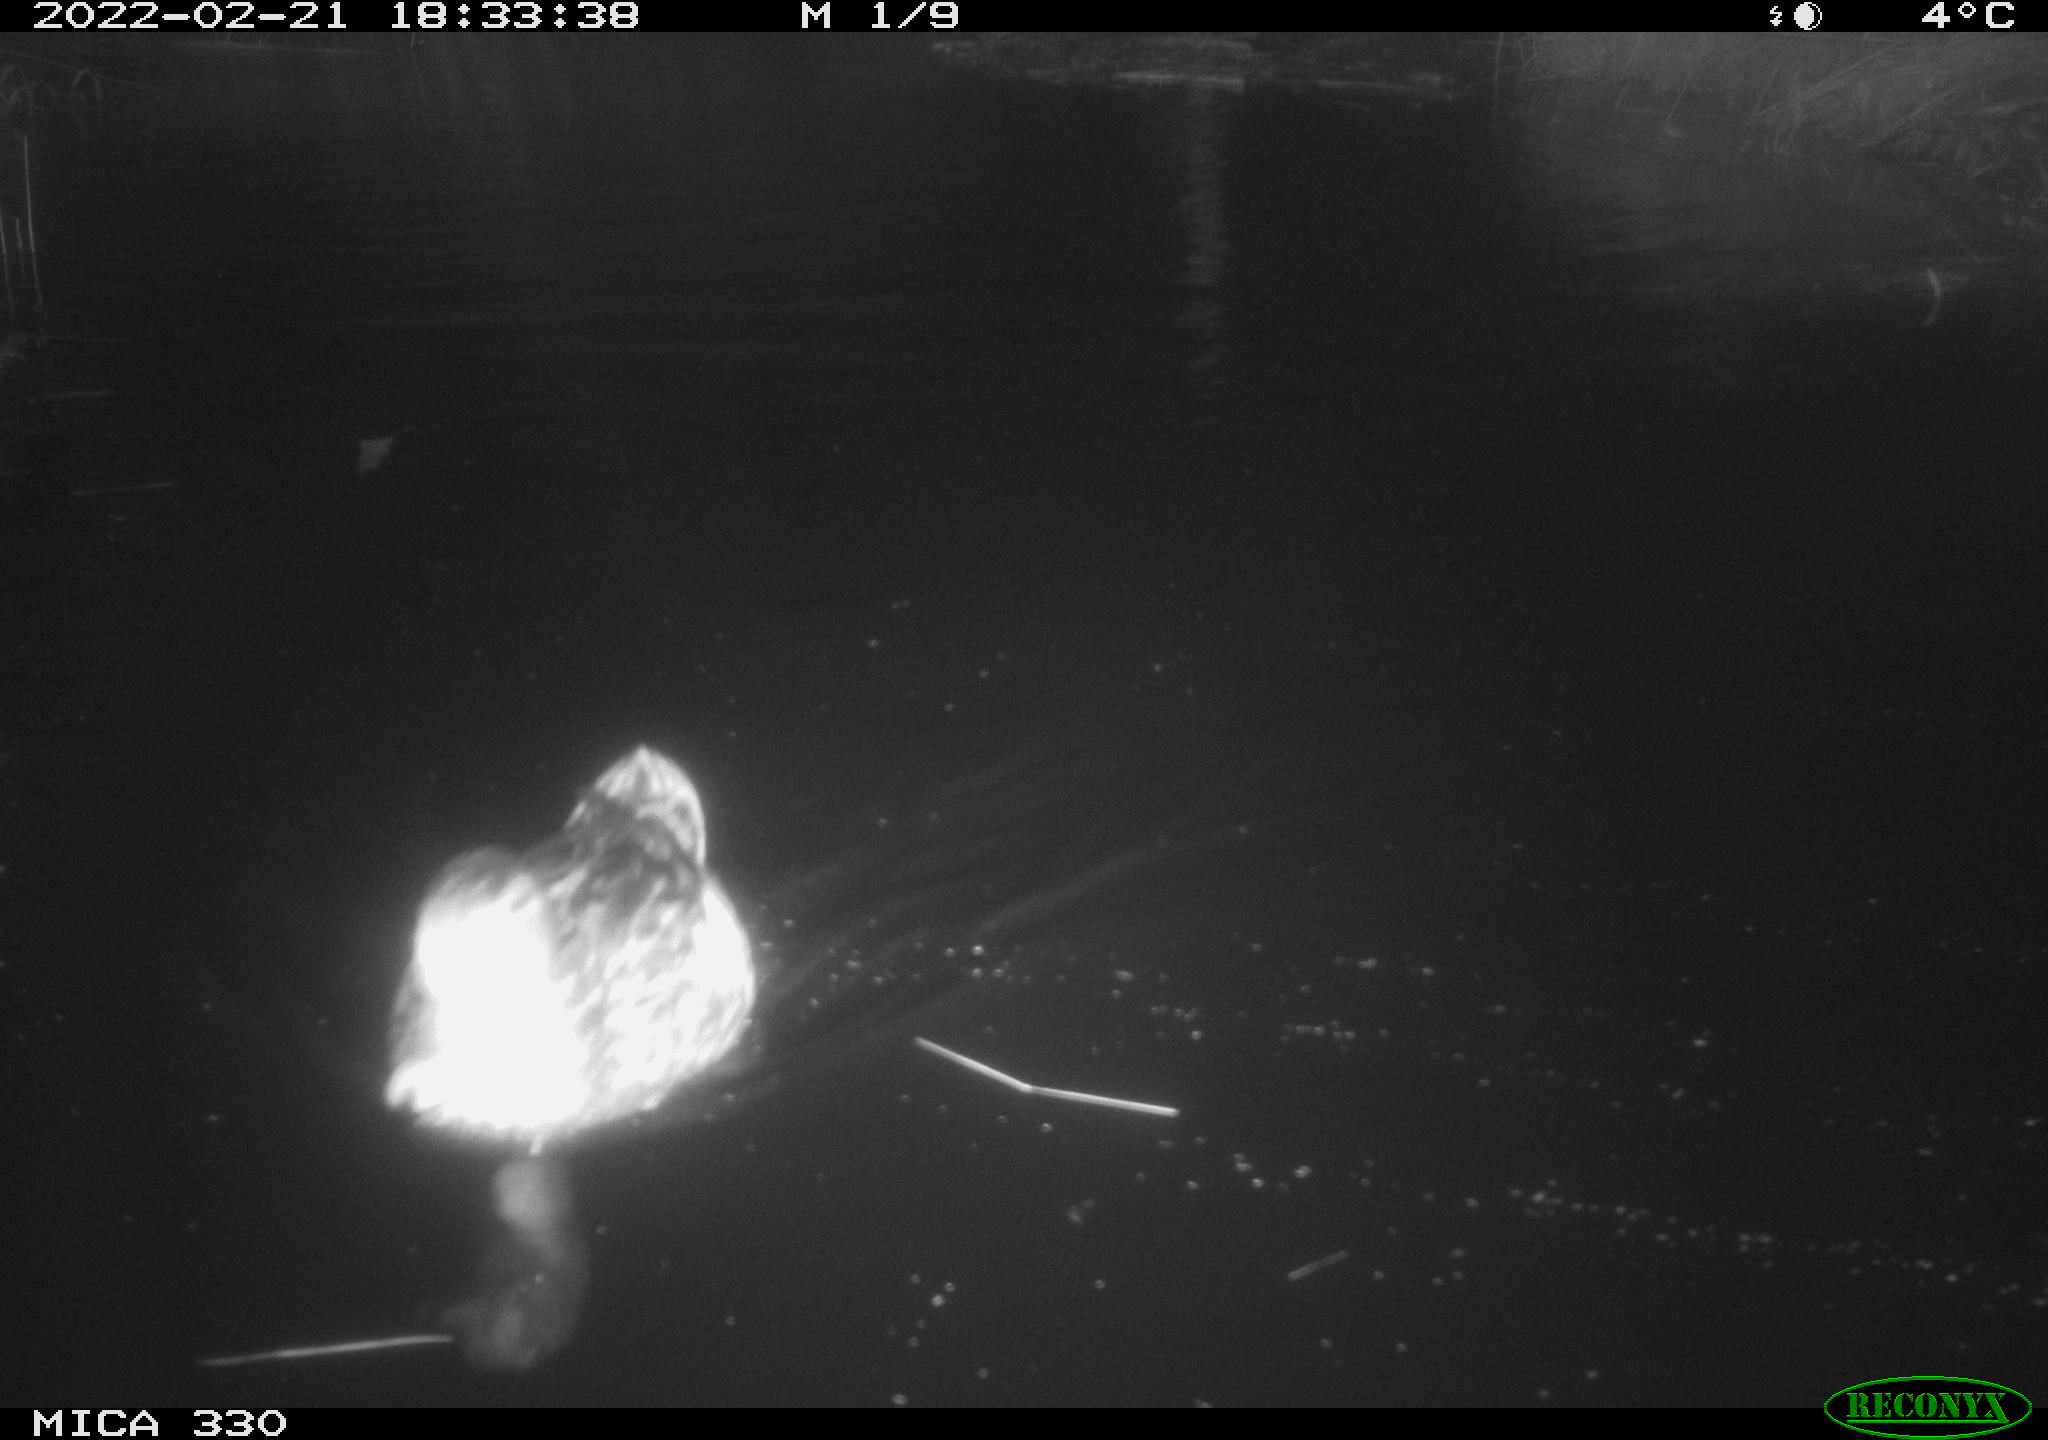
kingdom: Animalia
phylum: Chordata
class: Aves
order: Anseriformes
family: Anatidae
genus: Anas
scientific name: Anas platyrhynchos
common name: Mallard
